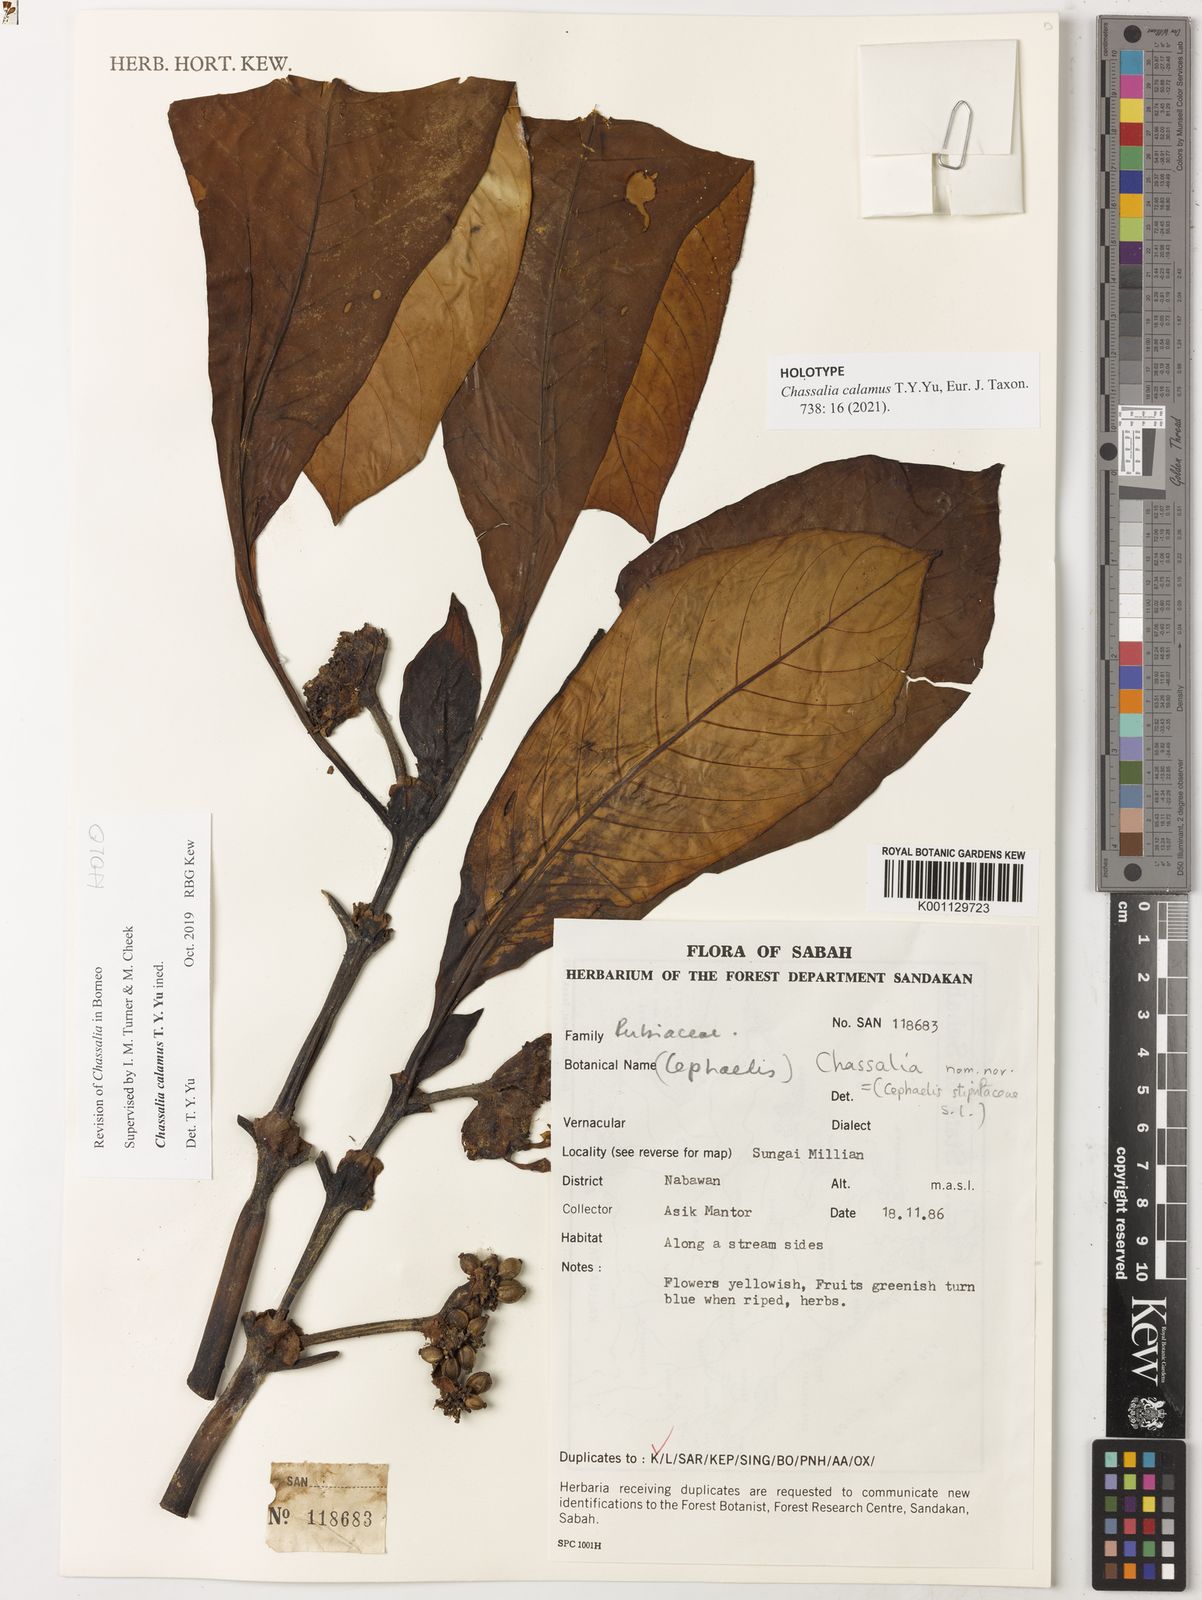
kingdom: Plantae
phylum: Tracheophyta
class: Magnoliopsida
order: Gentianales
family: Rubiaceae
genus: Chassalia
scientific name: Chassalia
